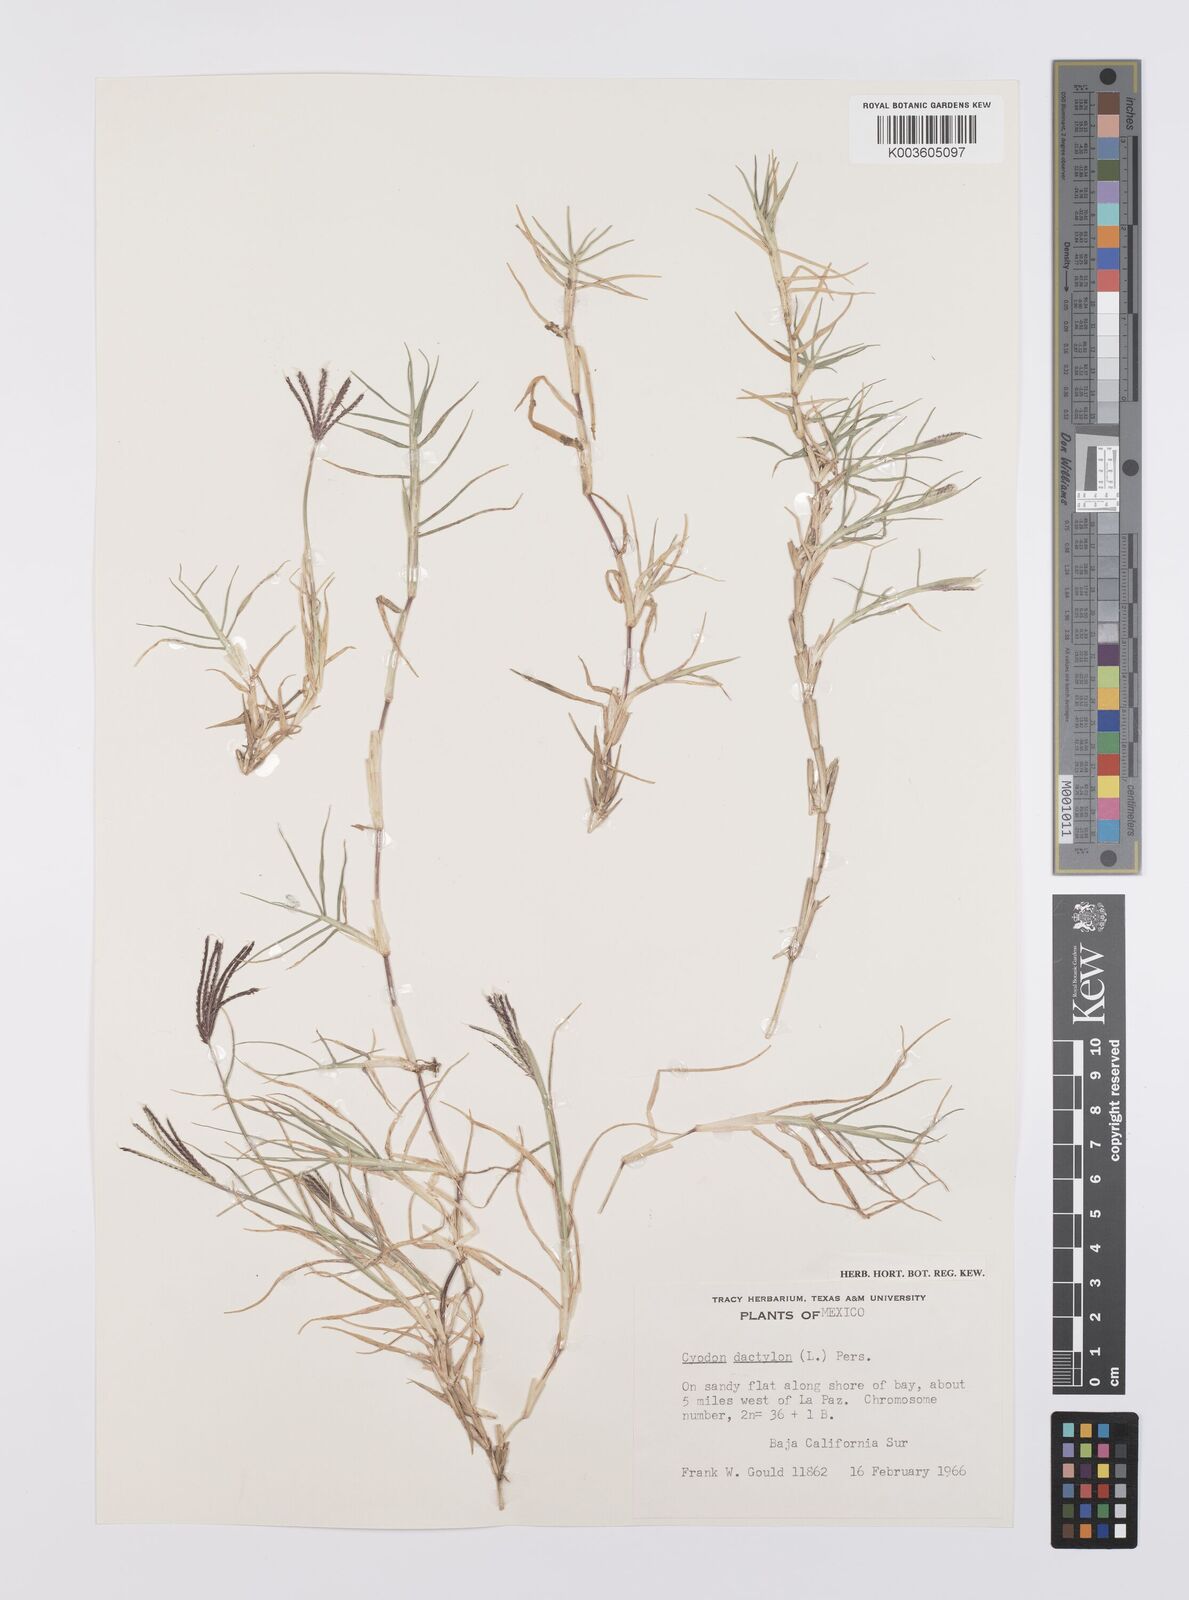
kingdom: Plantae
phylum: Tracheophyta
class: Liliopsida
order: Poales
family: Poaceae
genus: Cynodon
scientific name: Cynodon dactylon
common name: Bermuda grass
